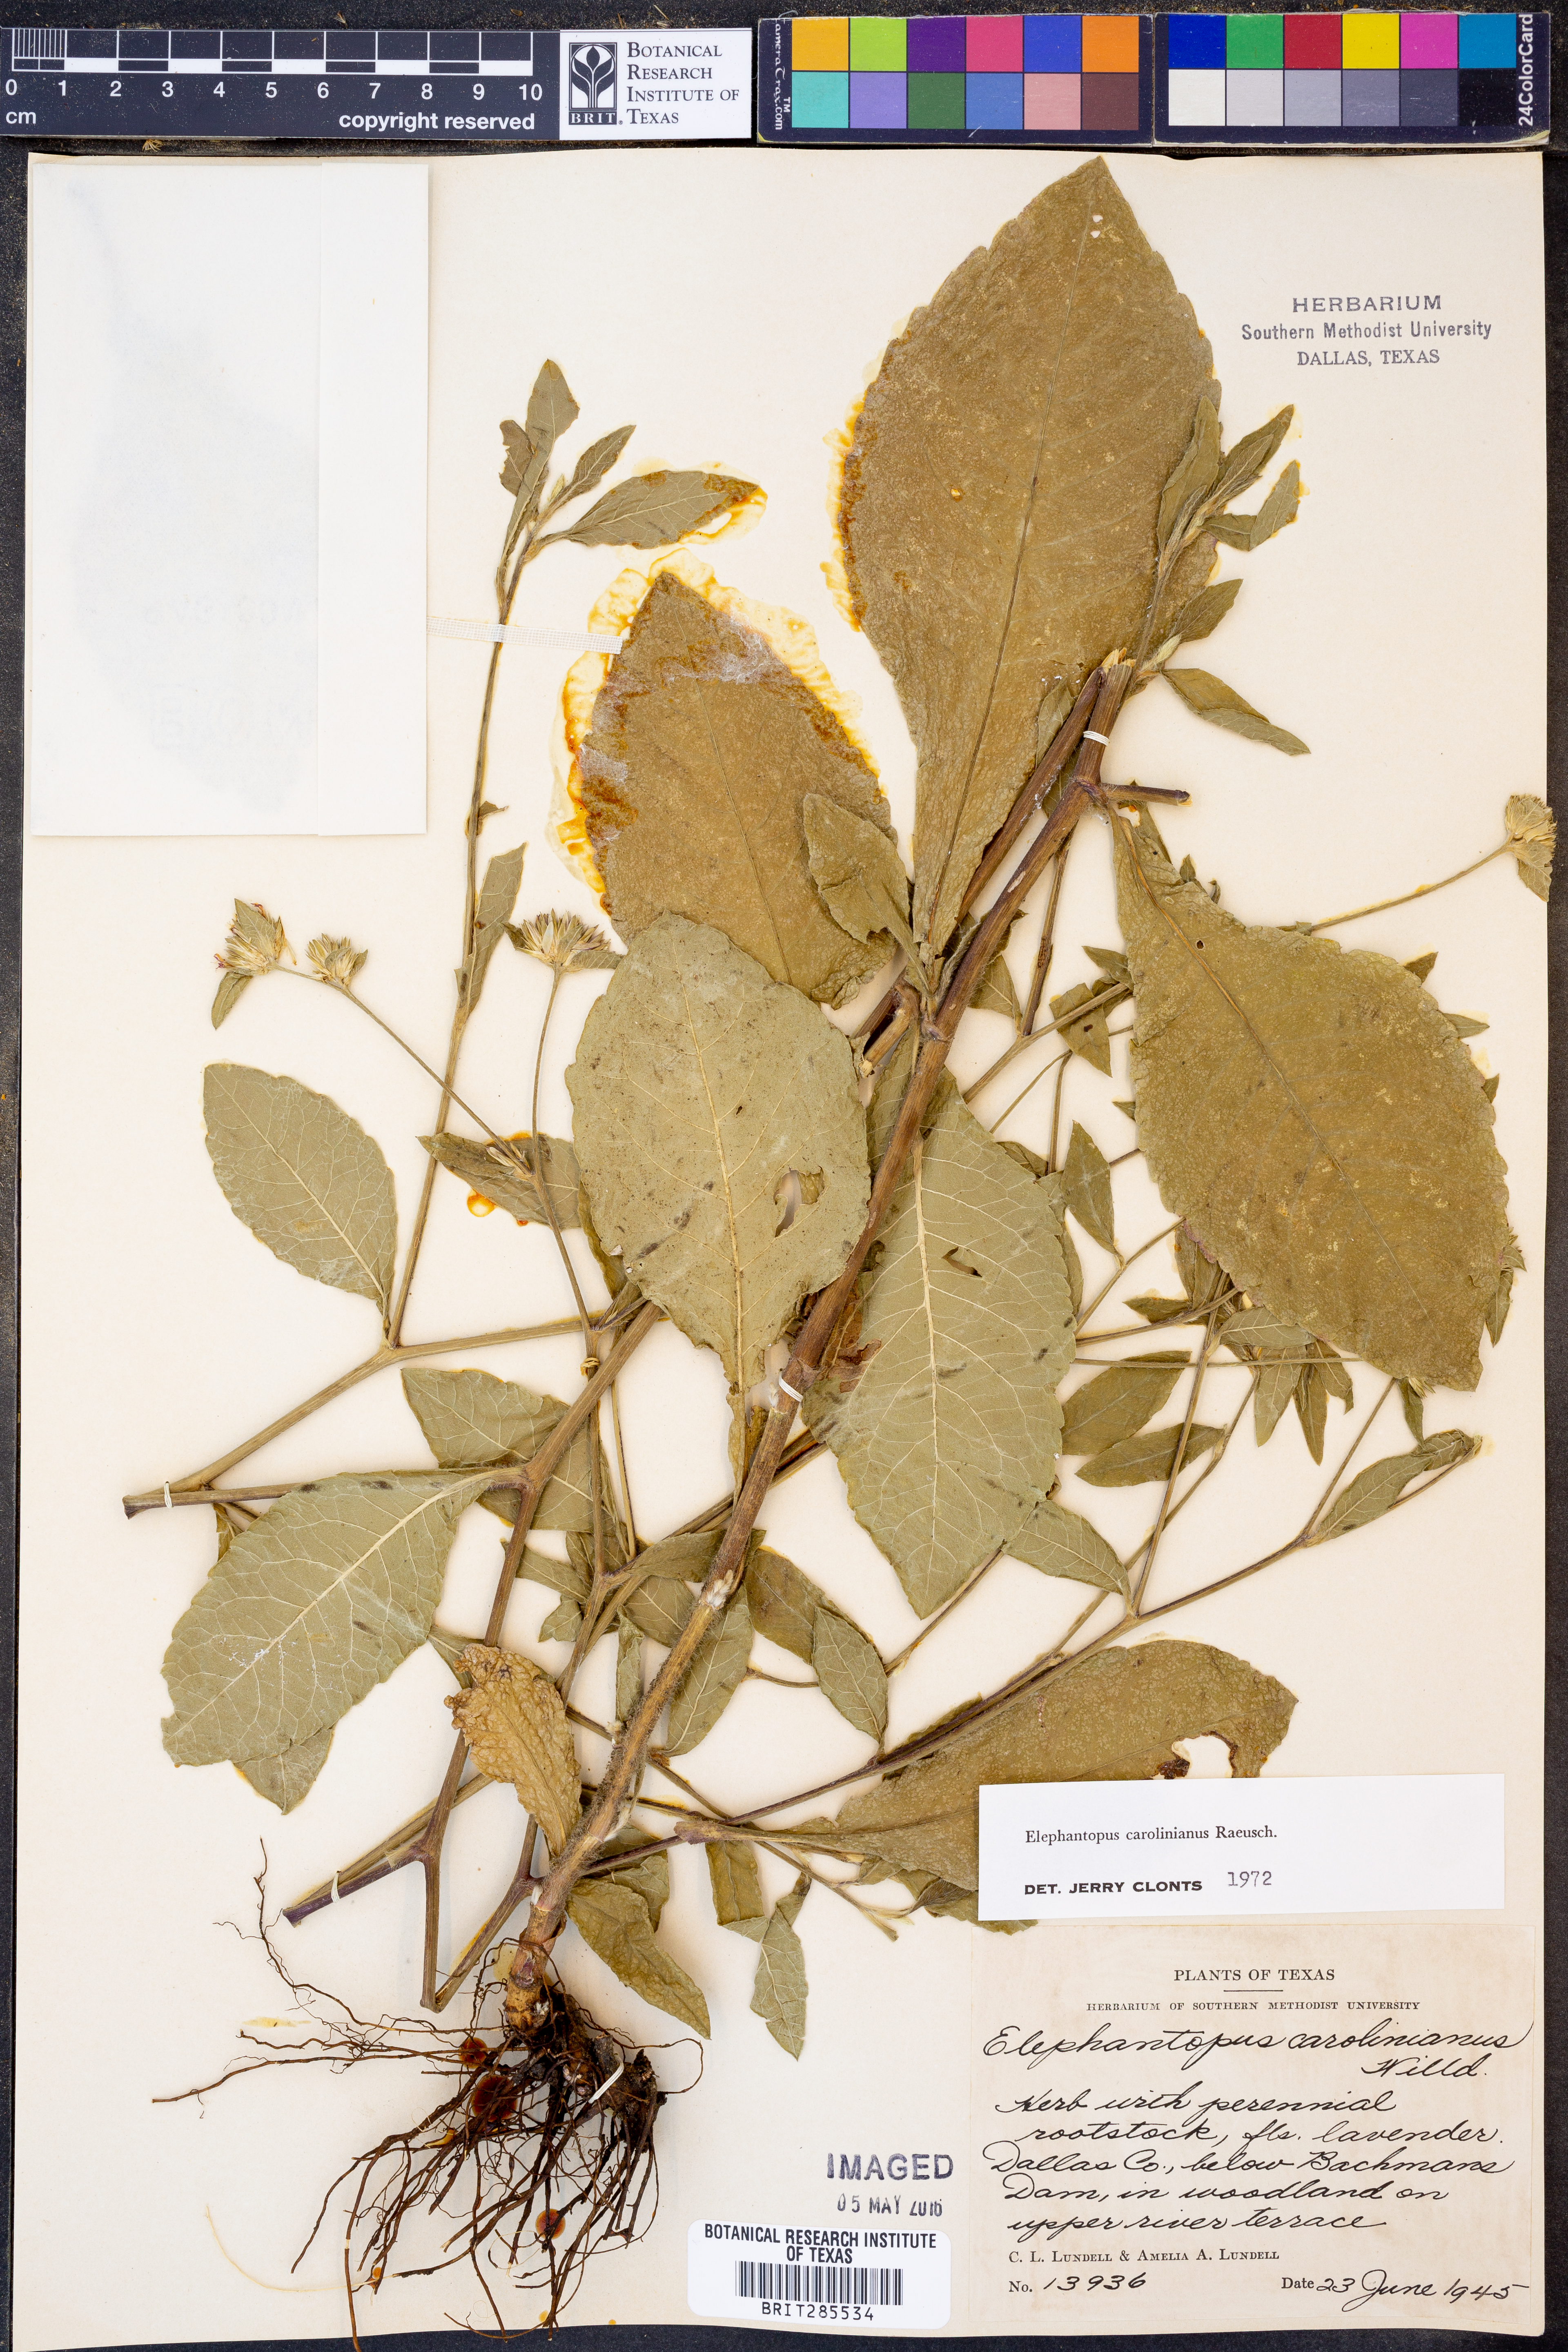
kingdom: Plantae
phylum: Tracheophyta
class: Magnoliopsida
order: Asterales
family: Asteraceae
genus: Elephantopus
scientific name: Elephantopus carolinianus
